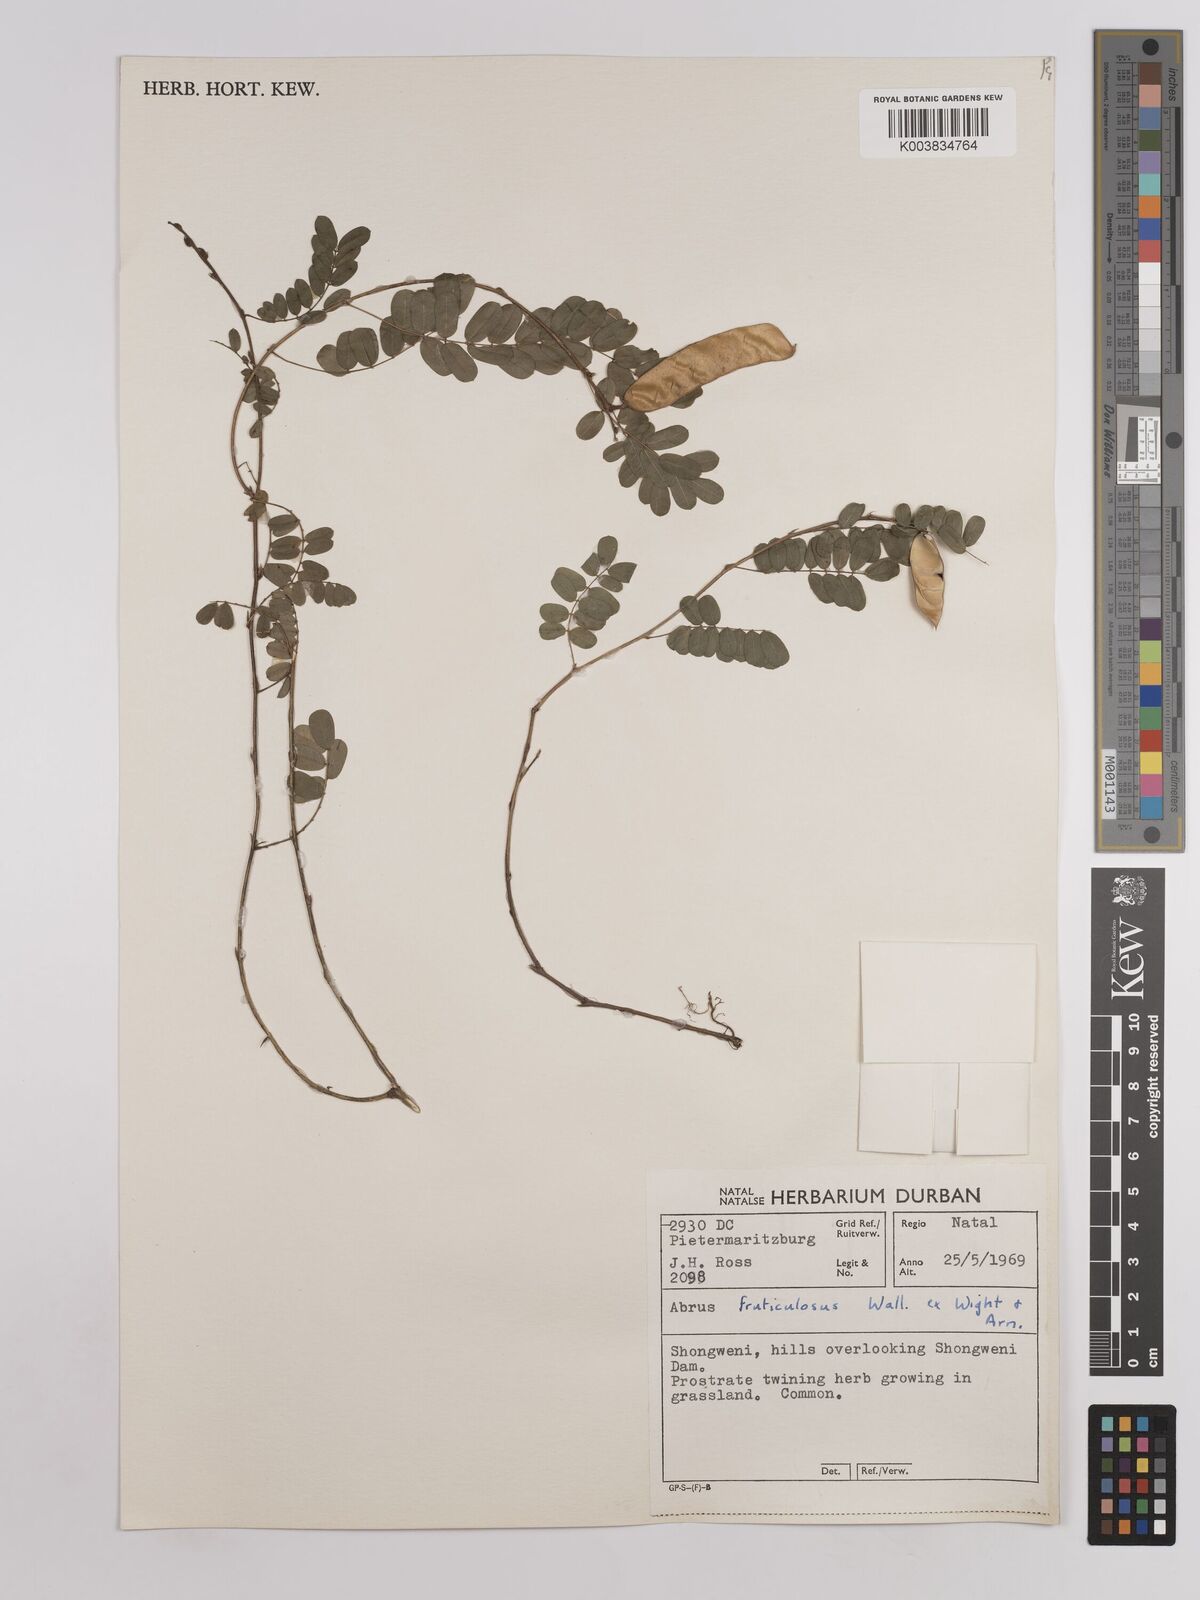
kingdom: Plantae
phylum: Tracheophyta
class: Magnoliopsida
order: Fabales
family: Fabaceae
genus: Abrus
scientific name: Abrus fruticulosus
